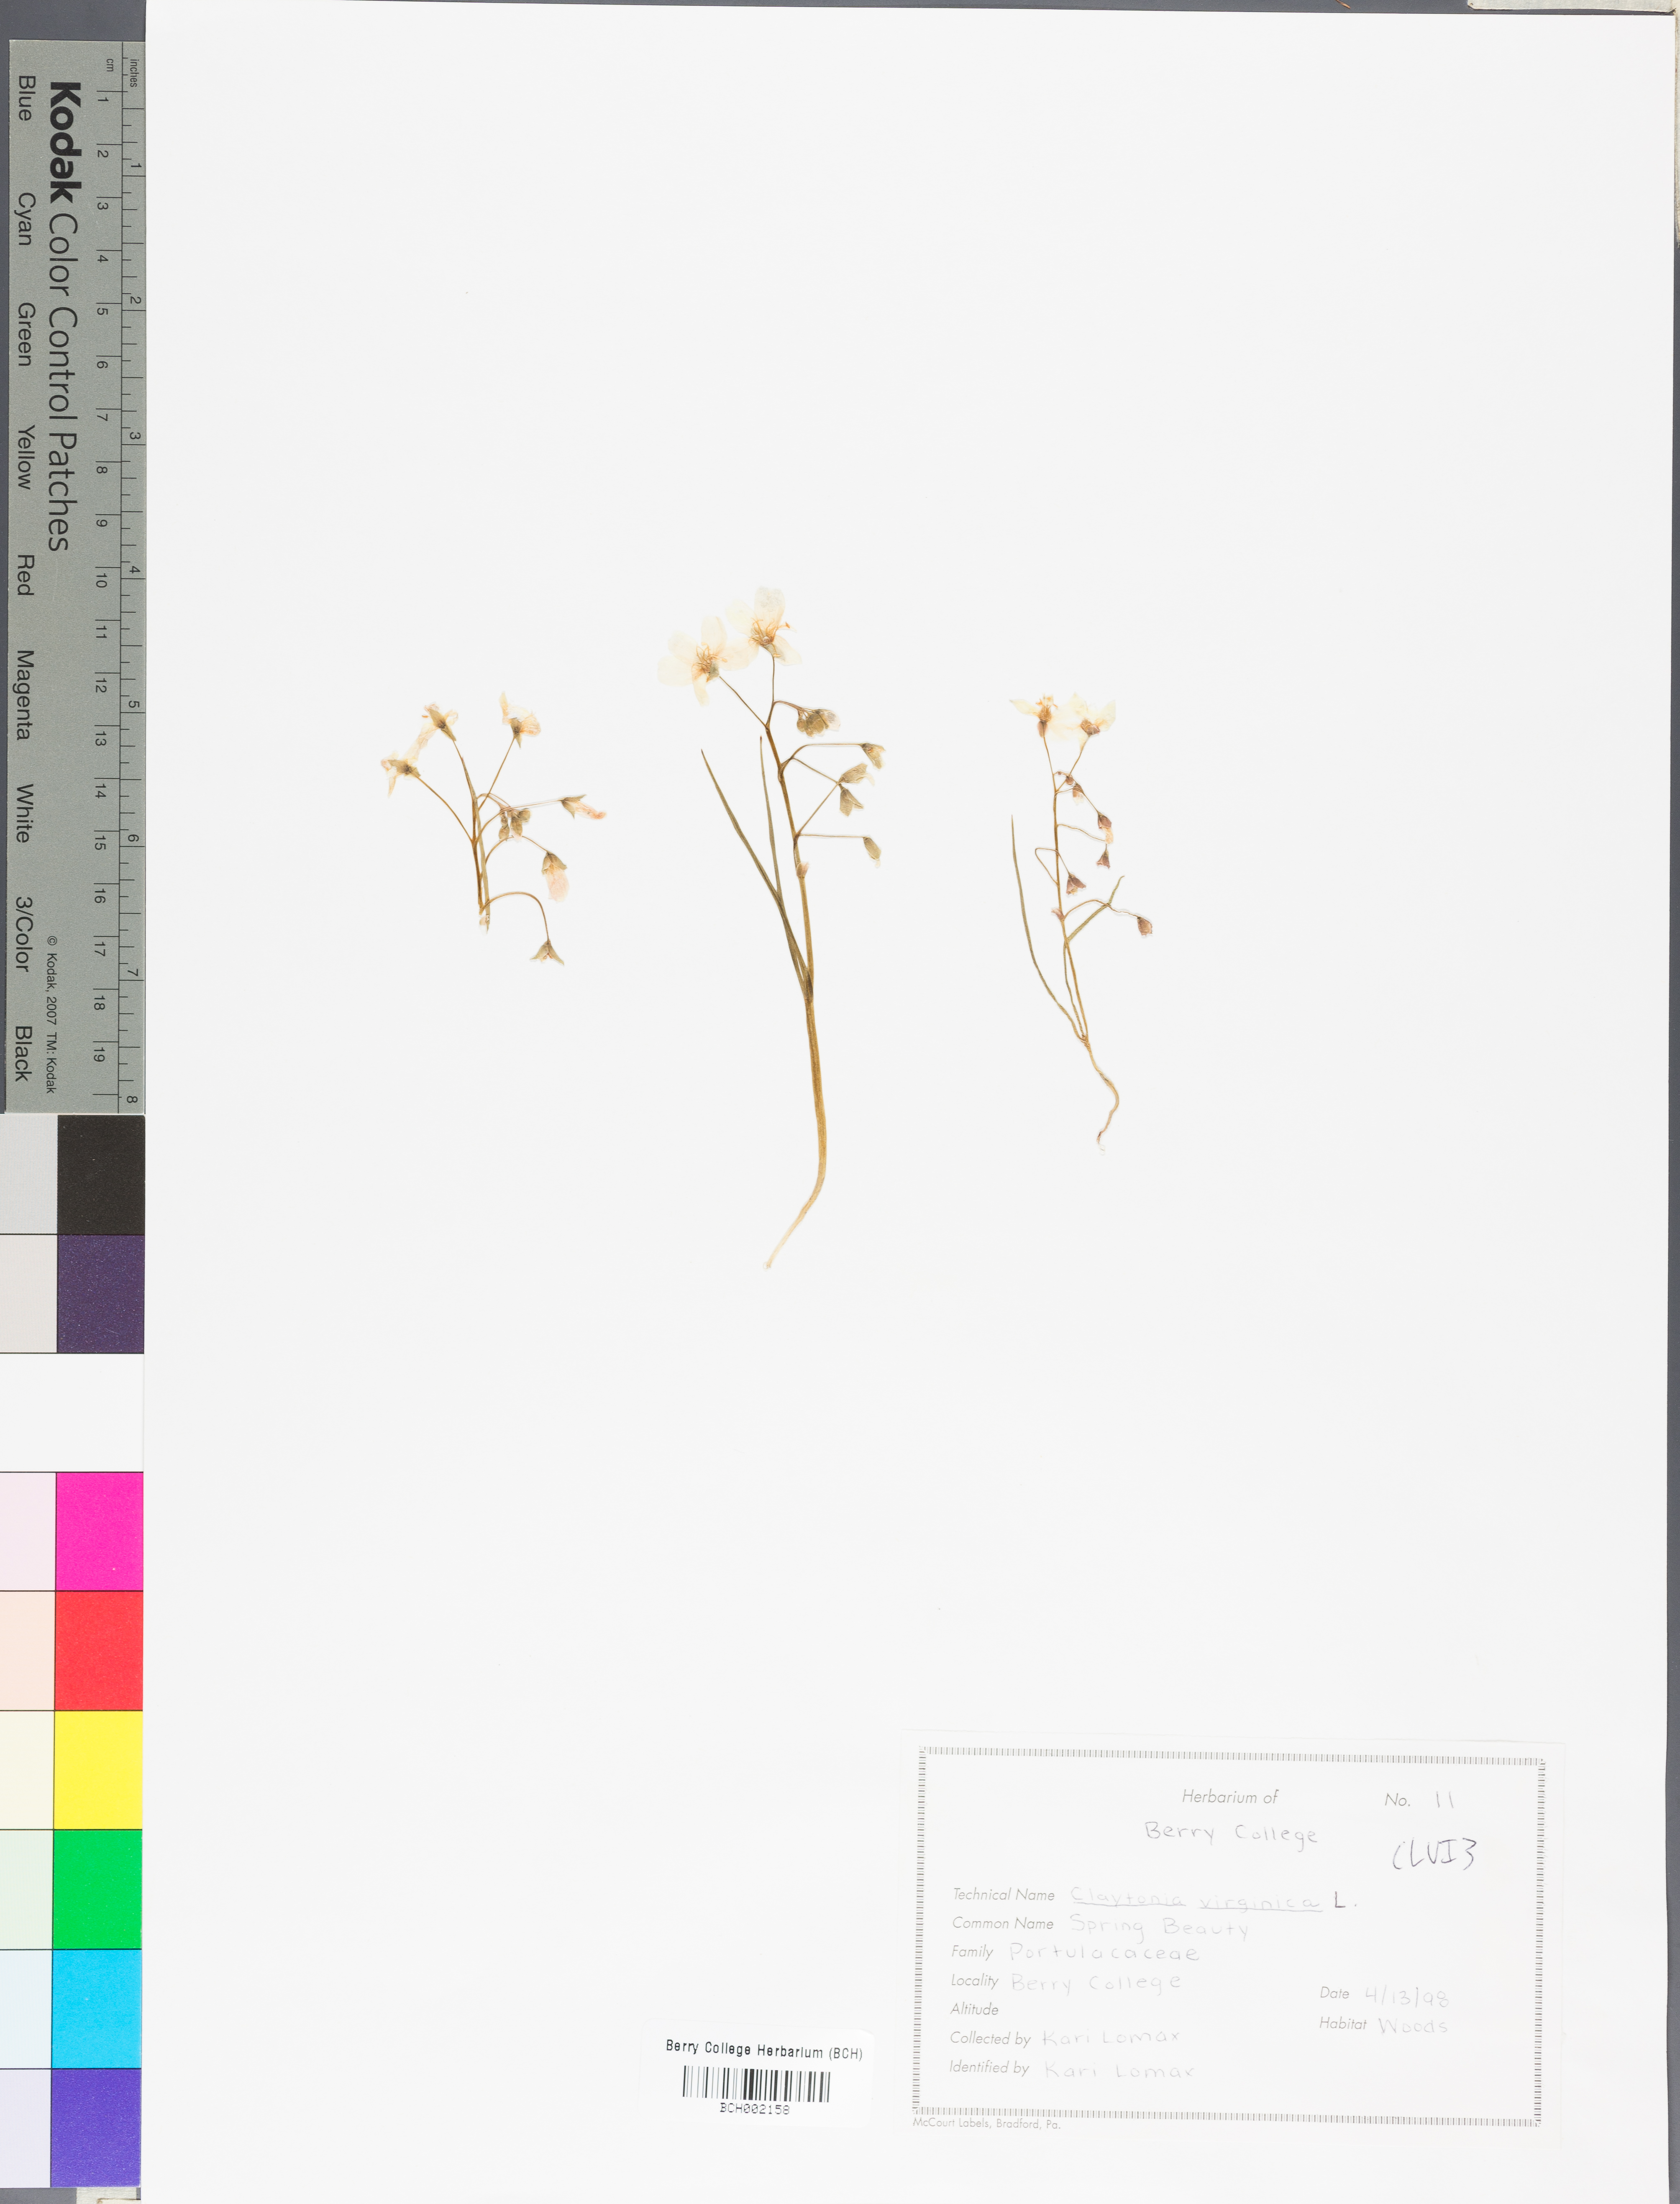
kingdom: Plantae
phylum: Tracheophyta
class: Magnoliopsida
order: Caryophyllales
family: Montiaceae
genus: Claytonia
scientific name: Claytonia virginica
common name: Virginia springbeauty
